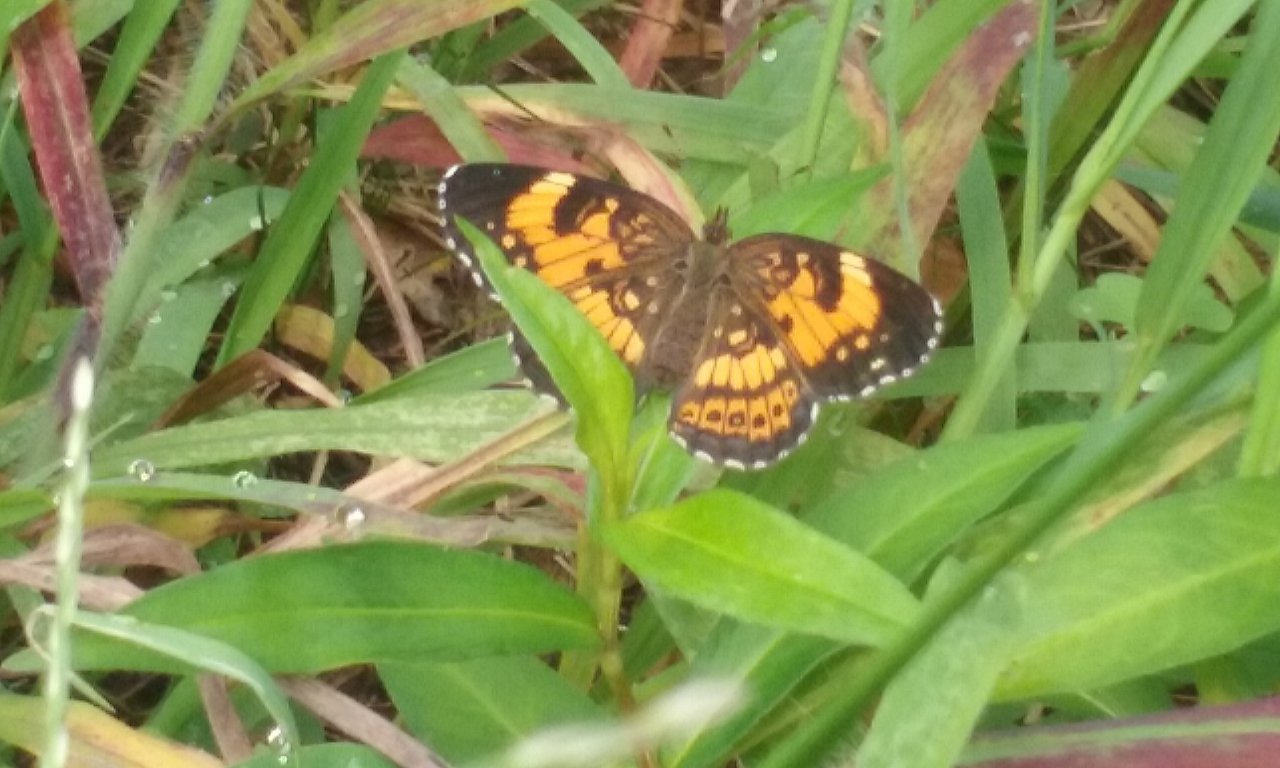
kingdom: Animalia
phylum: Arthropoda
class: Insecta
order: Lepidoptera
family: Nymphalidae
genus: Chlosyne
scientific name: Chlosyne nycteis
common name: Silvery Checkerspot
